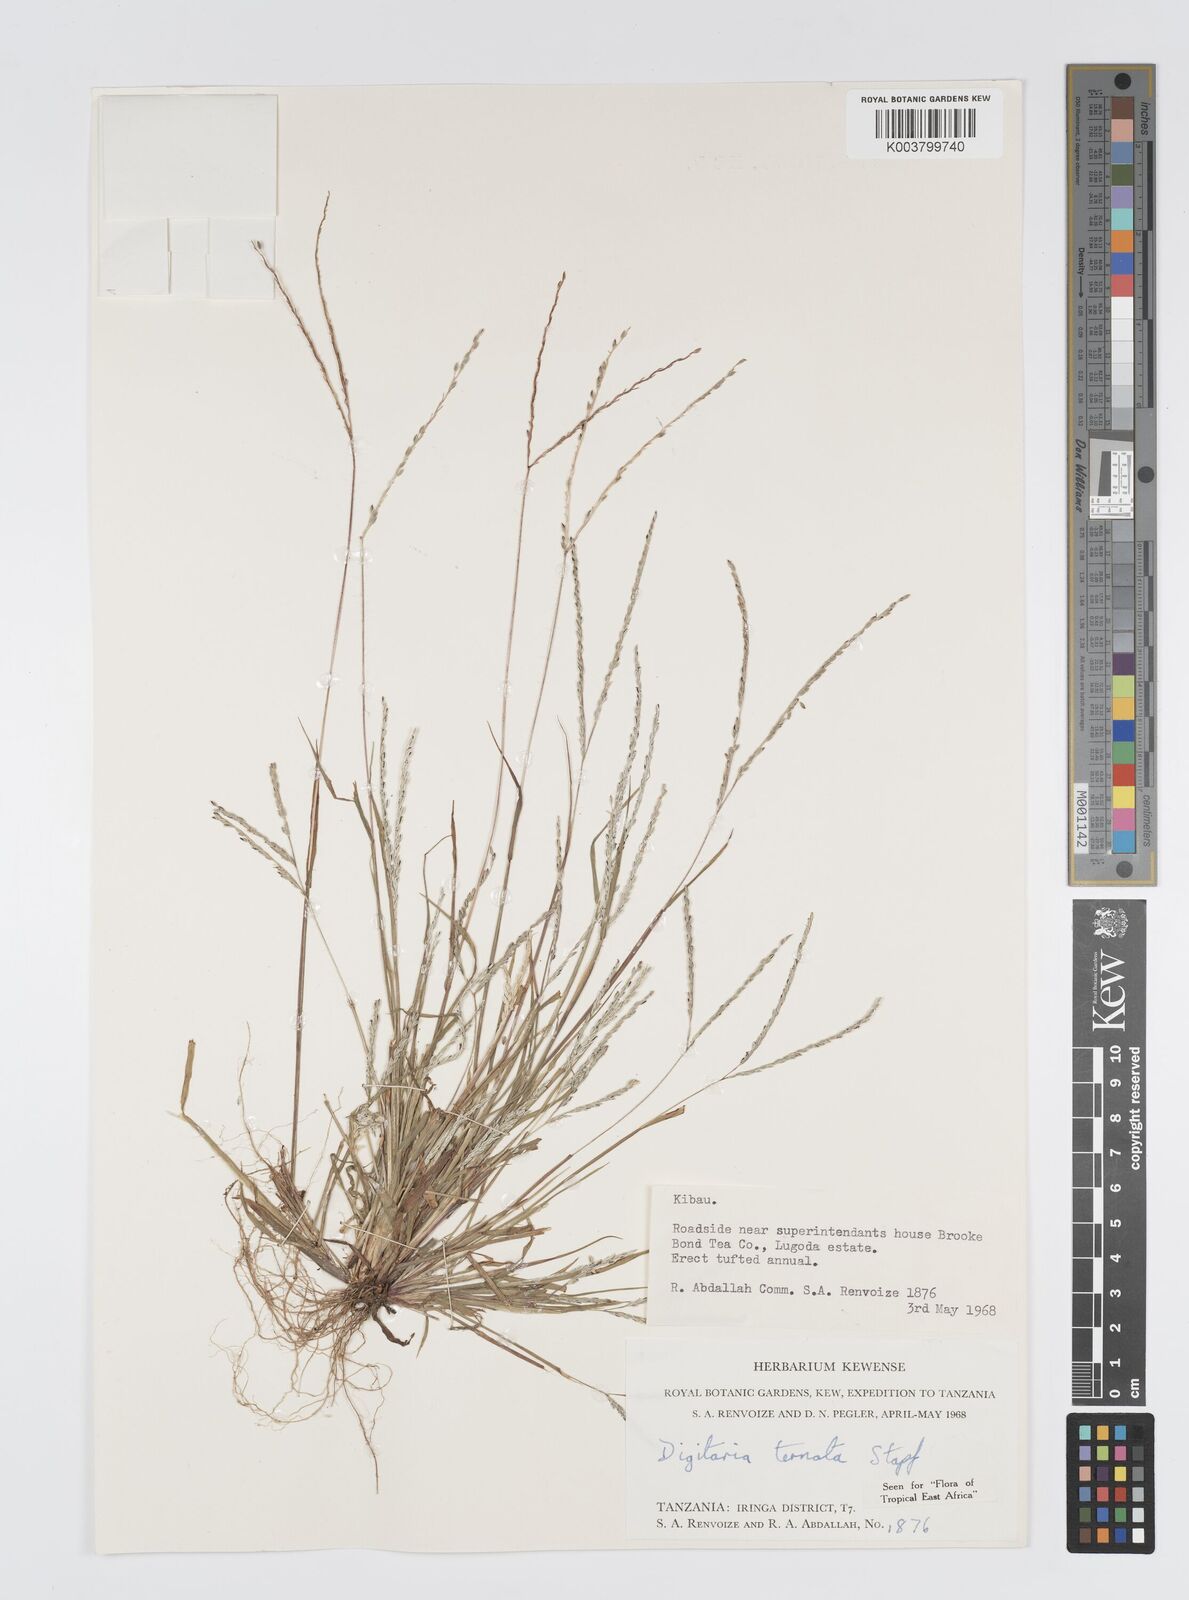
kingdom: Plantae
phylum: Tracheophyta
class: Liliopsida
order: Poales
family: Poaceae
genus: Digitaria
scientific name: Digitaria ternata
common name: Blackseed crabgrass
